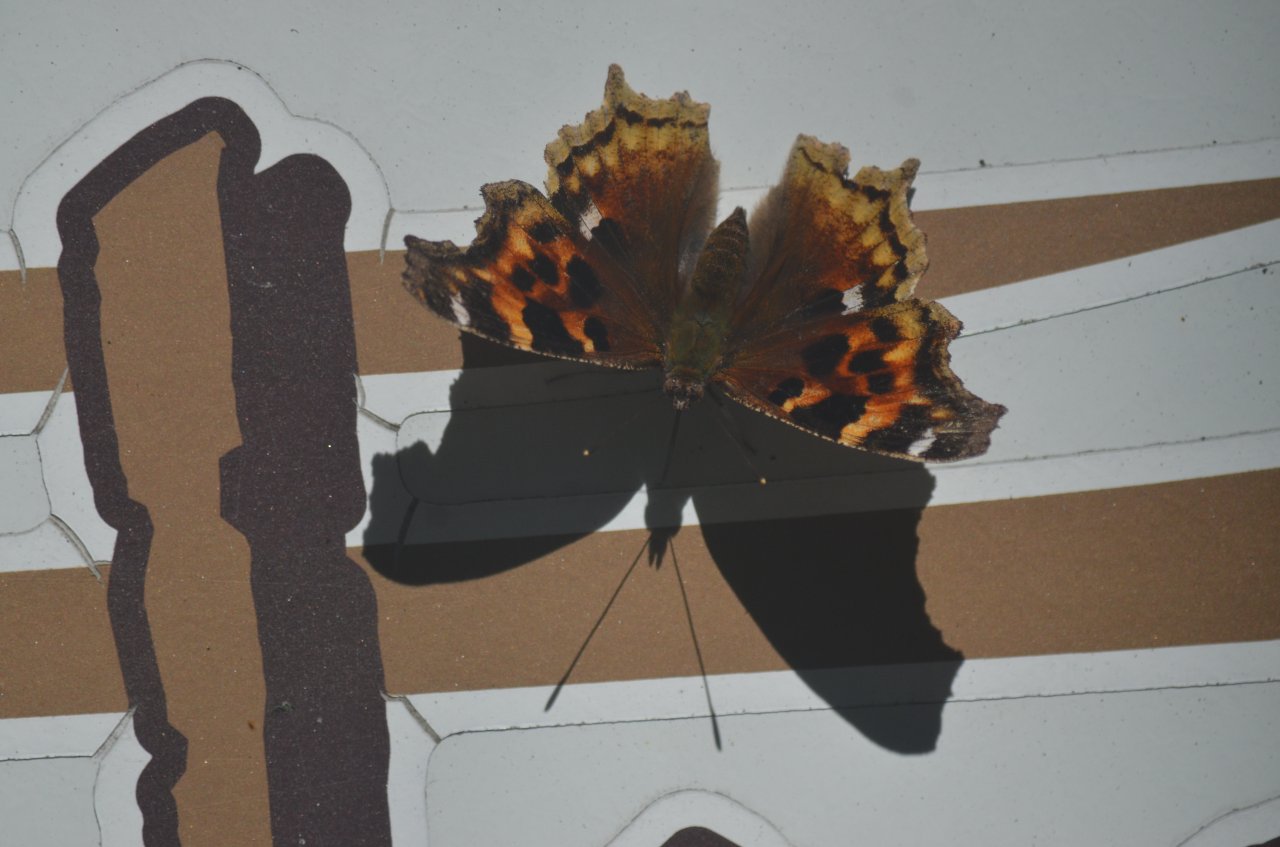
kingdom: Animalia
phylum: Arthropoda
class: Insecta
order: Lepidoptera
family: Nymphalidae
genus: Polygonia
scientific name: Polygonia vaualbum
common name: Compton Tortoiseshell
